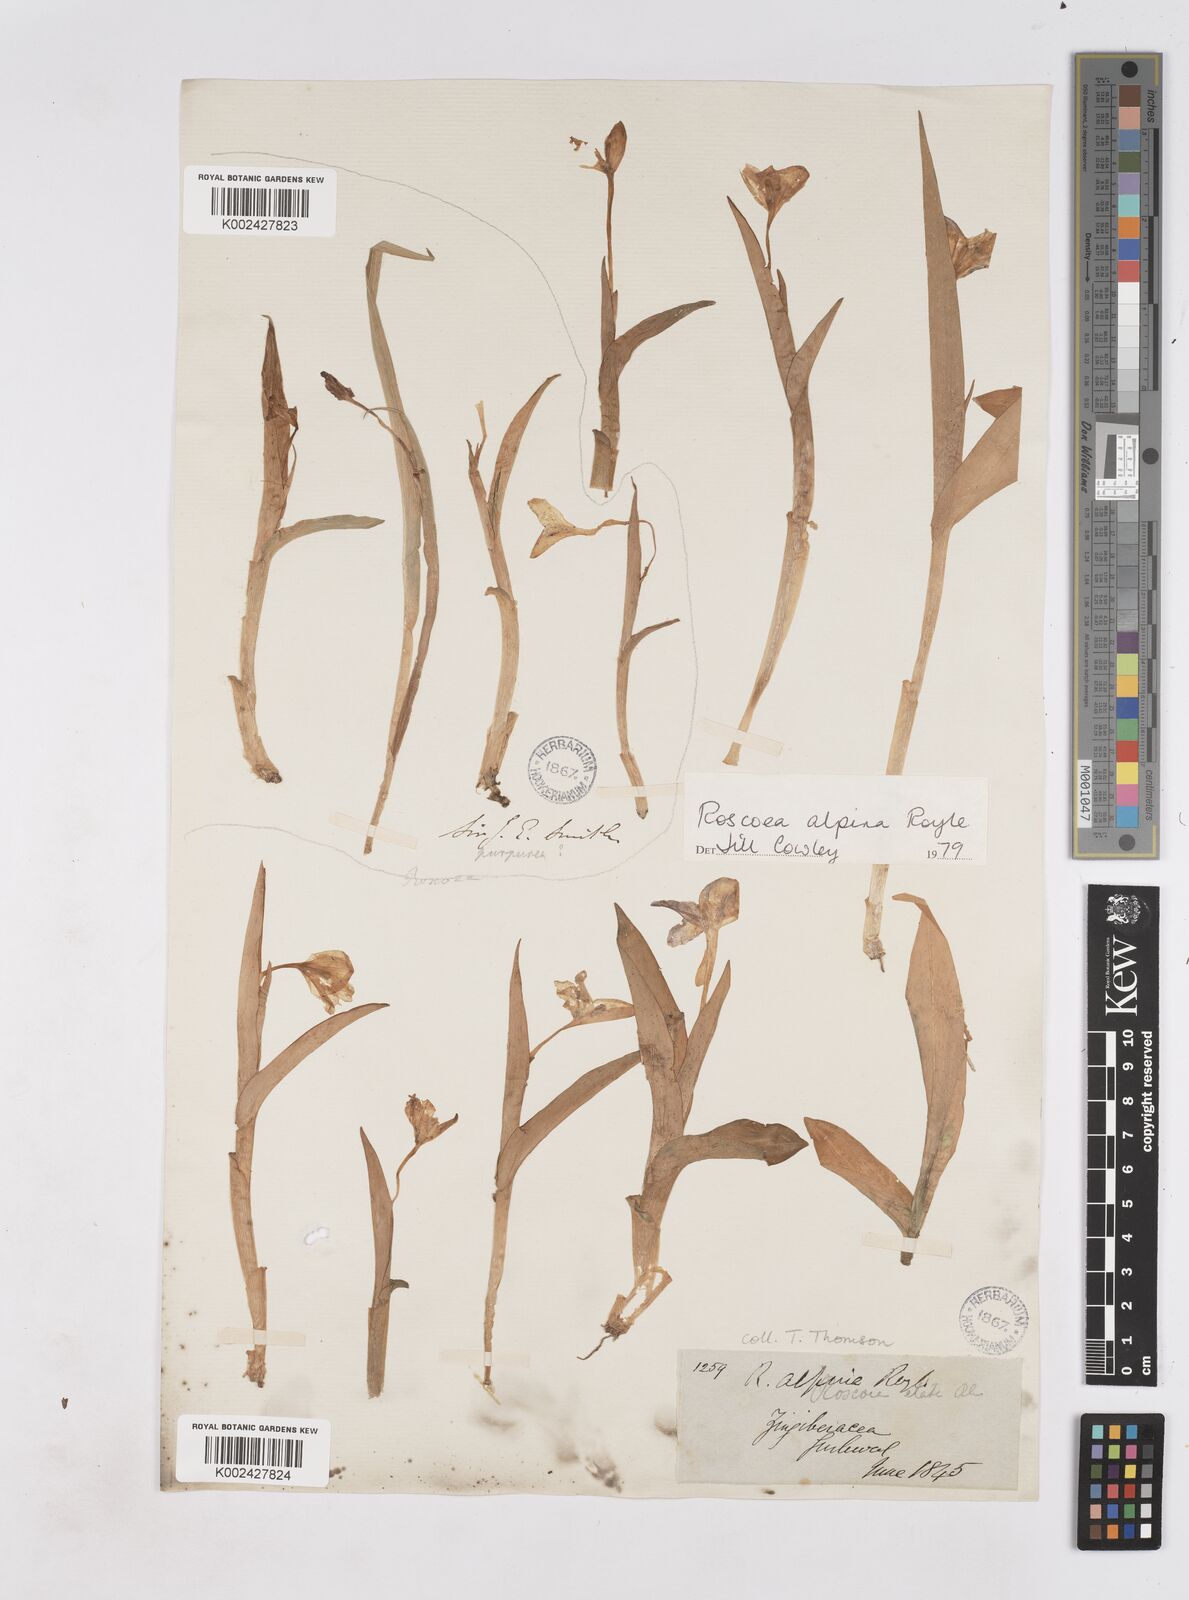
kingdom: Plantae
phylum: Tracheophyta
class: Liliopsida
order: Zingiberales
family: Zingiberaceae
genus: Roscoea
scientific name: Roscoea alpina
